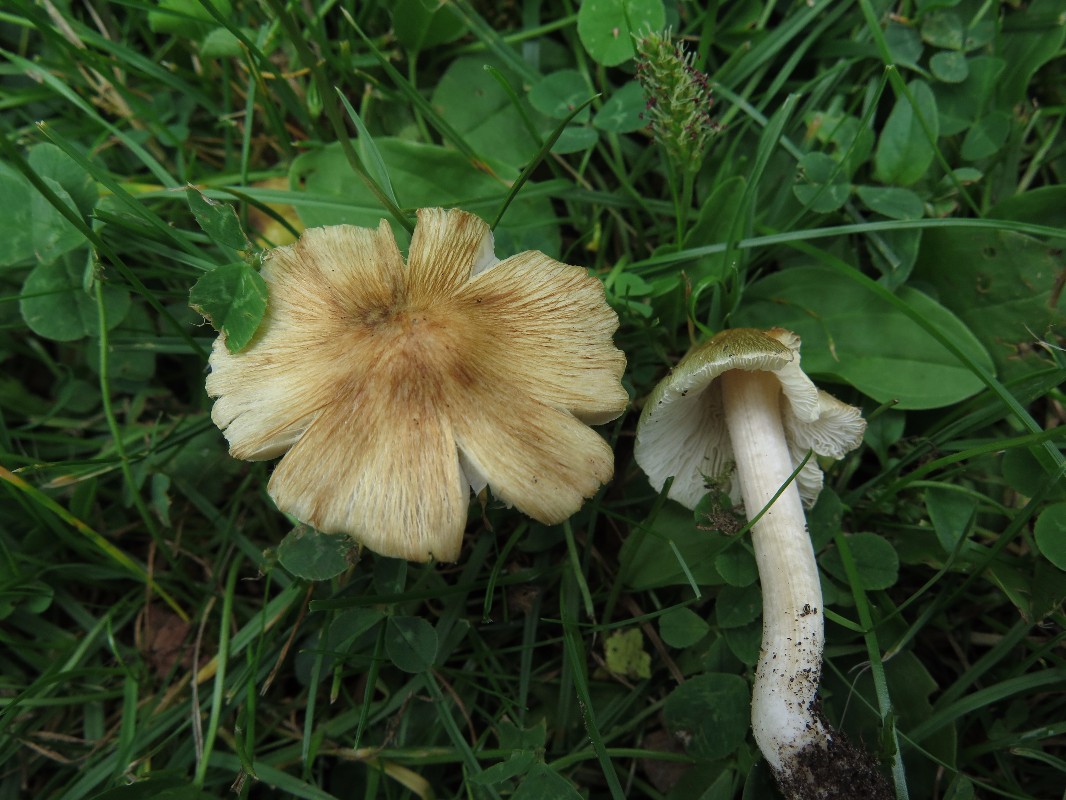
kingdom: Fungi
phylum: Basidiomycota
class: Agaricomycetes
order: Agaricales
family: Inocybaceae
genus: Pseudosperma
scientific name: Pseudosperma rimosum
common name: gulbladet trævlhat
